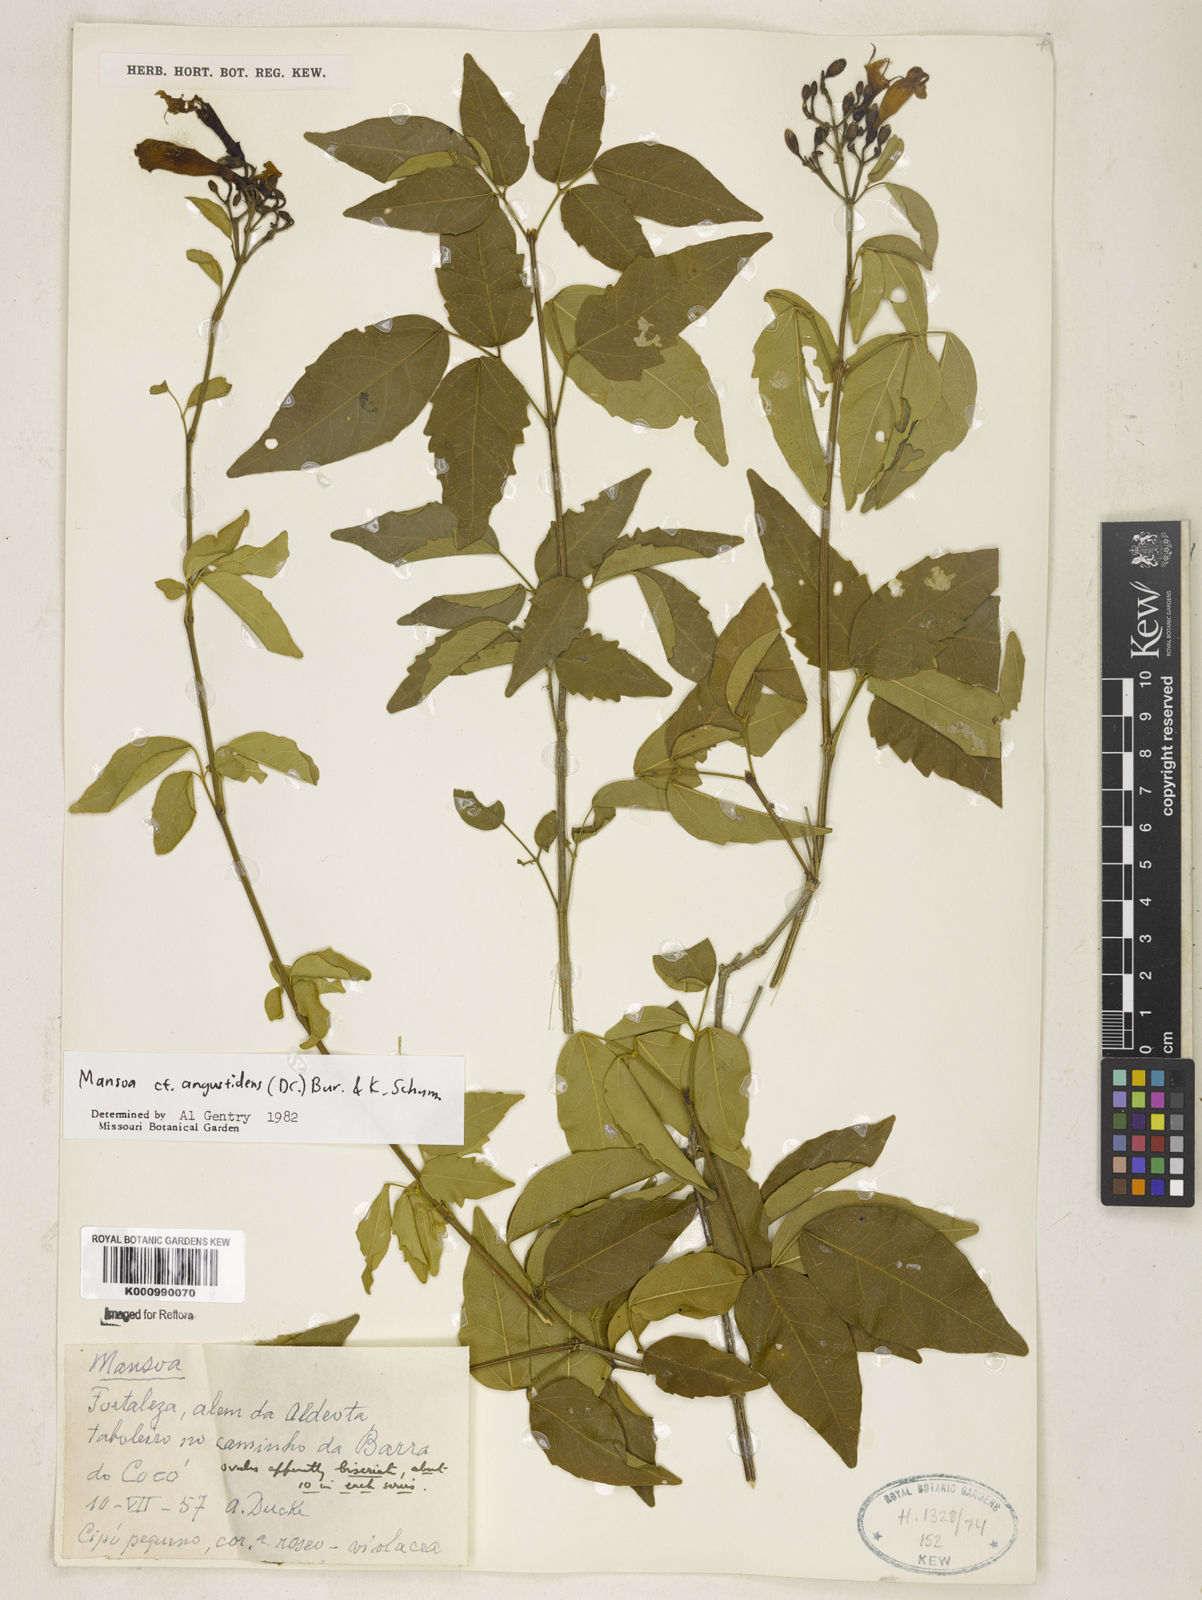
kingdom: Plantae
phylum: Tracheophyta
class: Magnoliopsida
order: Lamiales
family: Bignoniaceae
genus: Mansoa
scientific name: Mansoa angustidens
